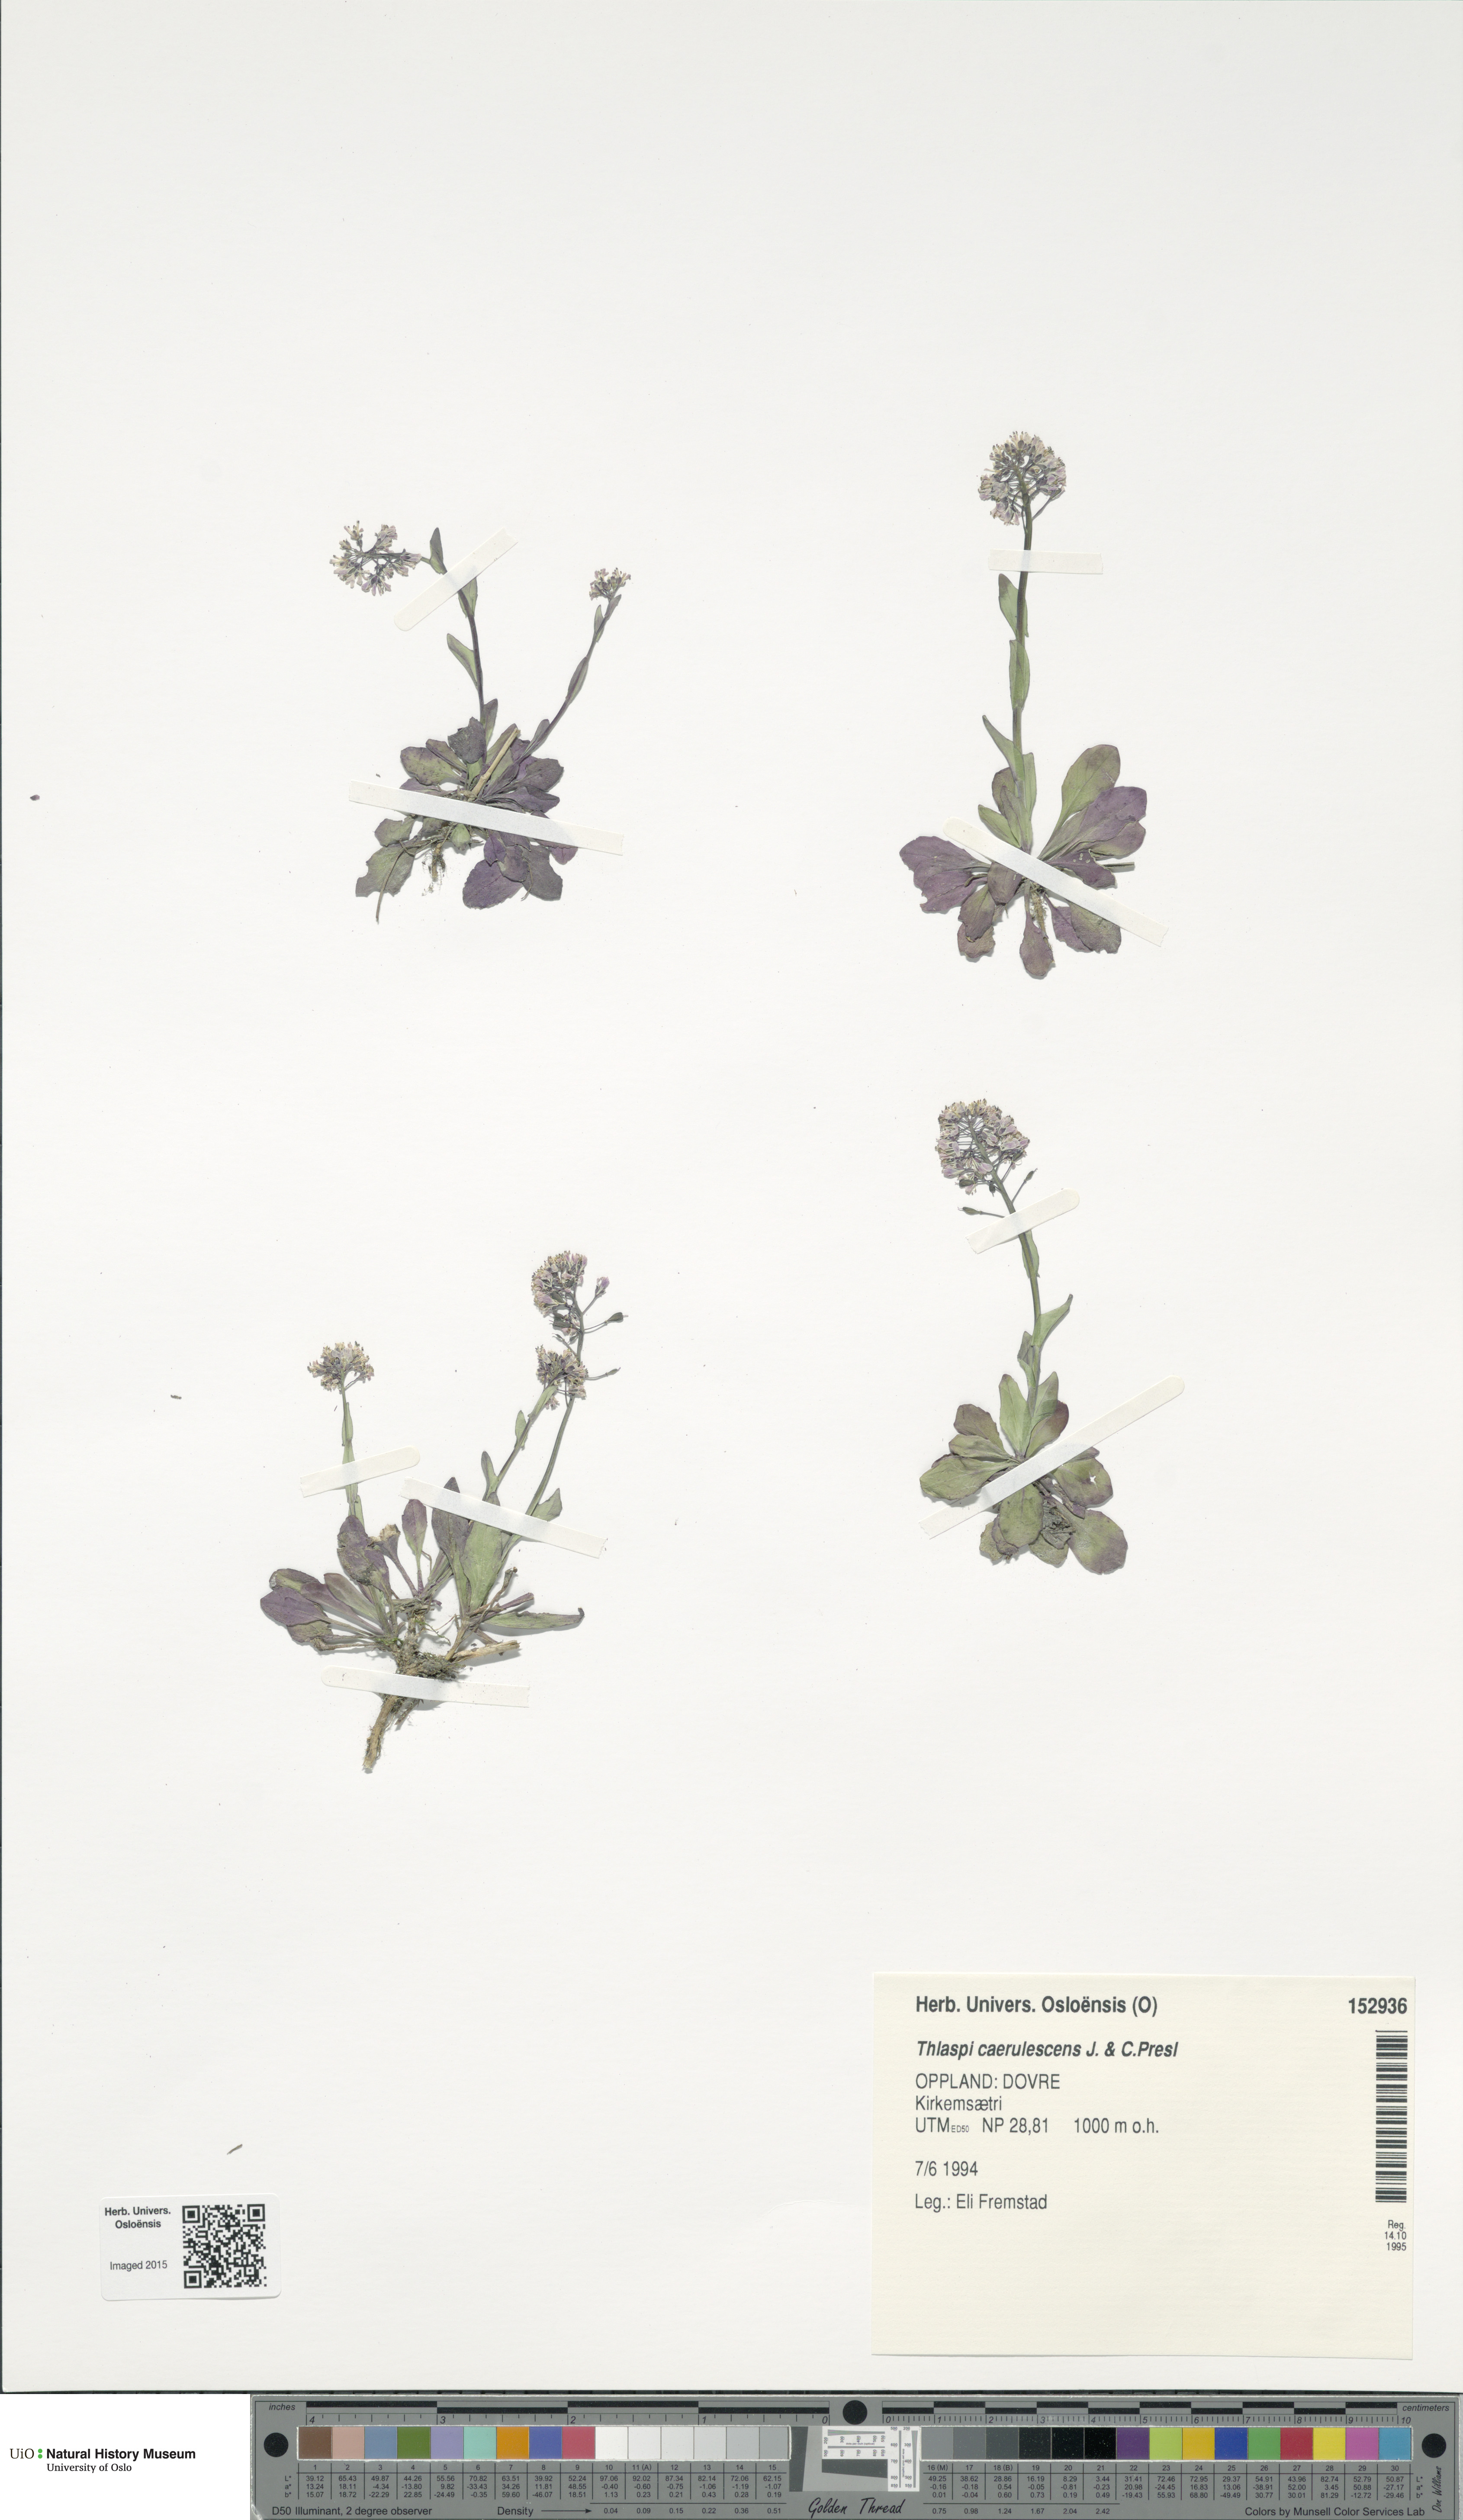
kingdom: Plantae
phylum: Tracheophyta
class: Magnoliopsida
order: Brassicales
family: Brassicaceae
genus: Noccaea
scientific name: Noccaea caerulescens
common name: Alpine pennycress
